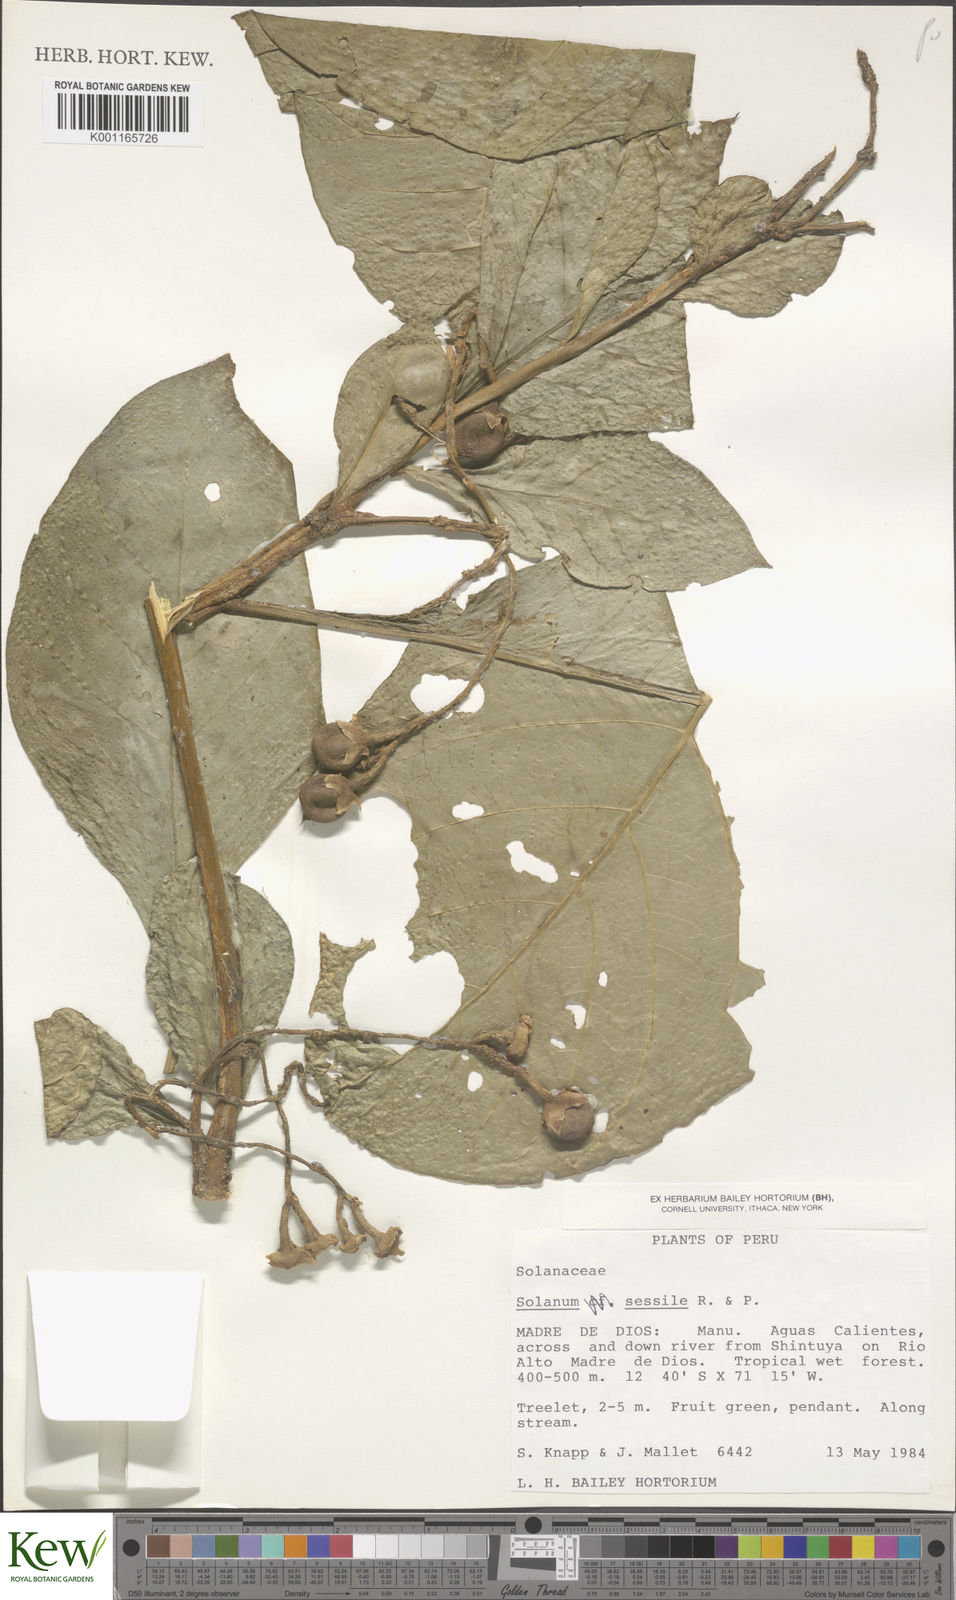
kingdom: Plantae
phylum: Tracheophyta
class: Magnoliopsida
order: Solanales
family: Solanaceae
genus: Solanum
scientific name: Solanum sessile
